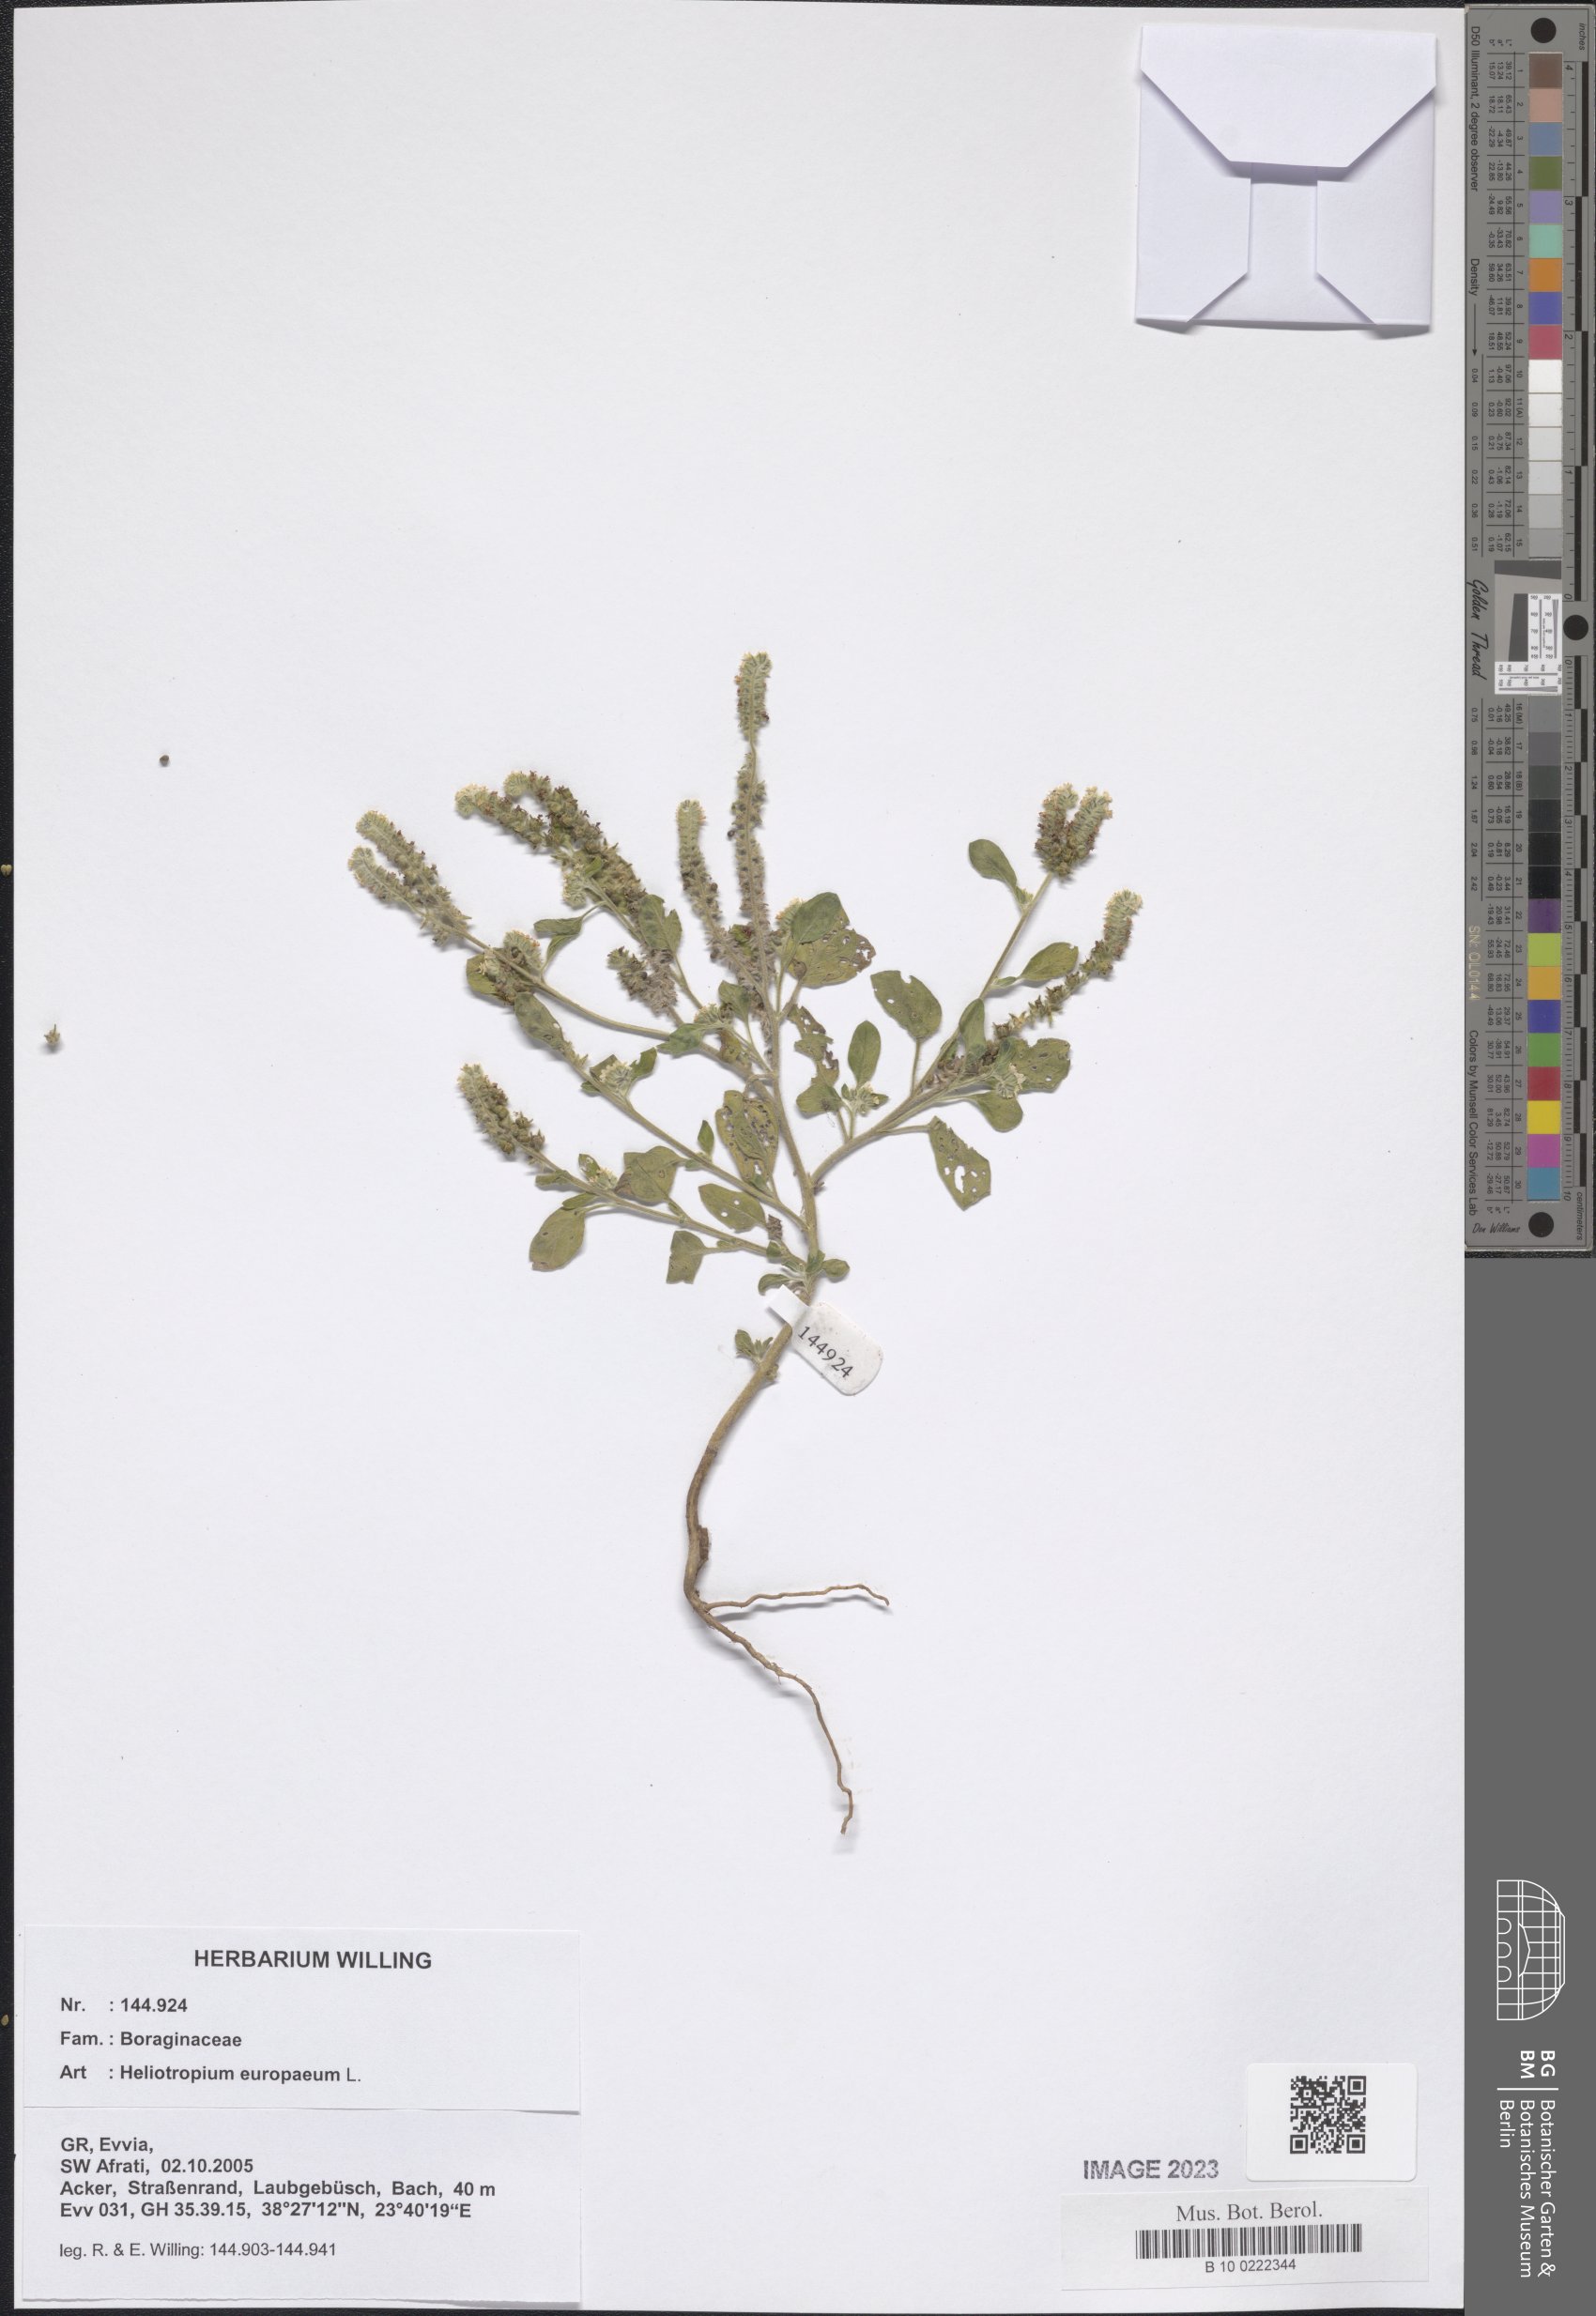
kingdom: Plantae
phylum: Tracheophyta
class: Magnoliopsida
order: Boraginales
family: Heliotropiaceae
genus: Heliotropium
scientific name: Heliotropium europaeum
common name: European heliotrope
